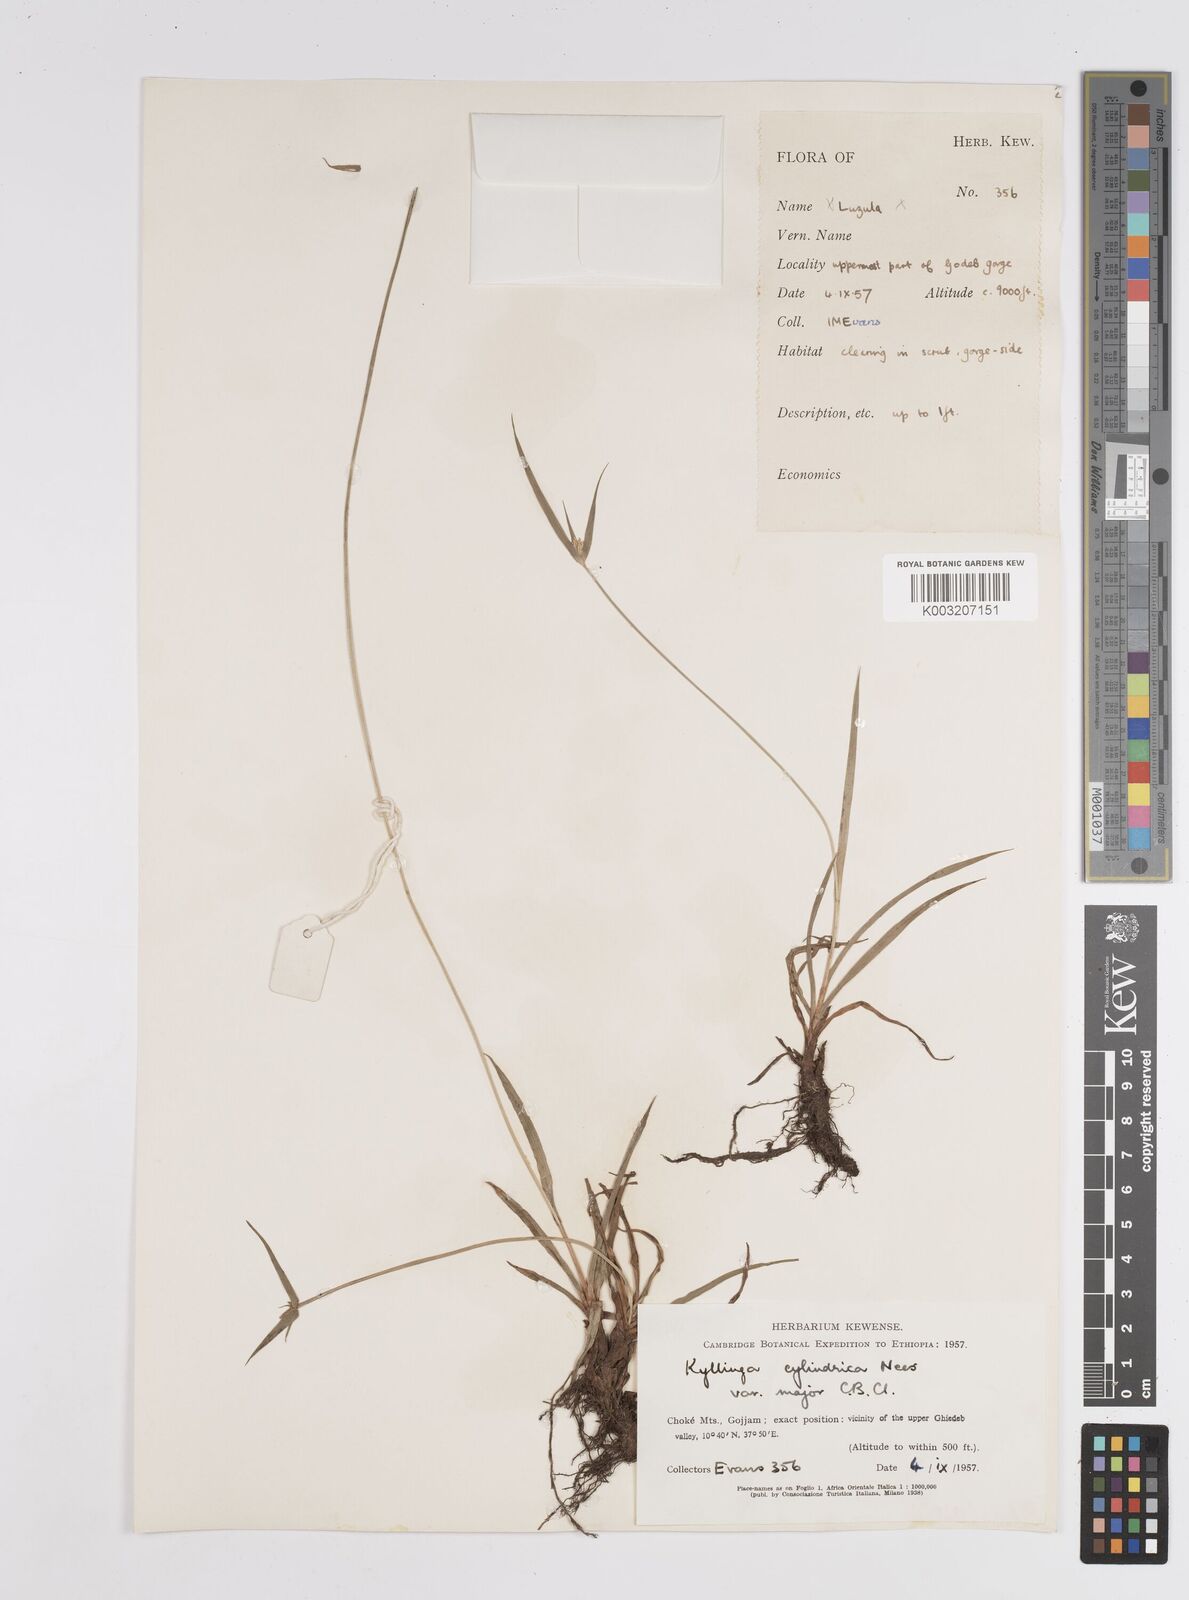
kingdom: Plantae
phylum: Tracheophyta
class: Liliopsida
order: Poales
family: Cyperaceae
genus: Cyperus
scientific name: Cyperus
